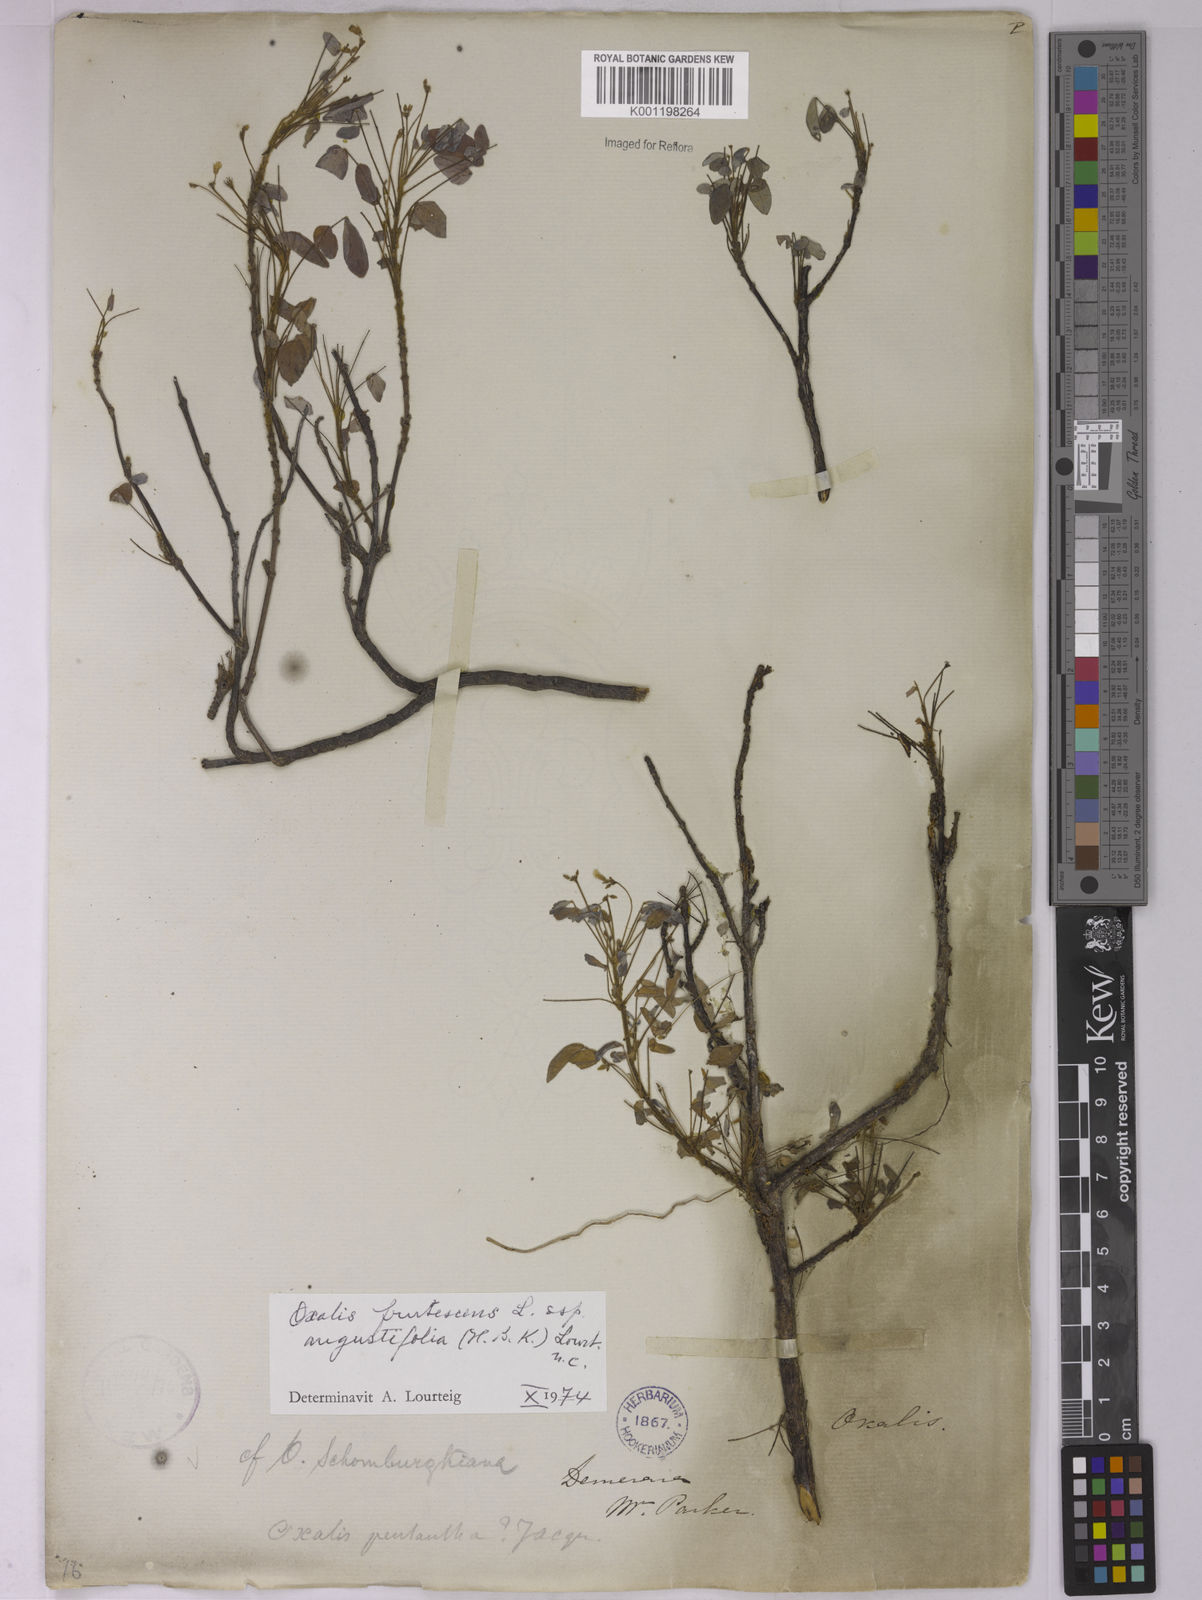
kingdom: Plantae
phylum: Tracheophyta
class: Magnoliopsida
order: Oxalidales
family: Oxalidaceae
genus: Oxalis
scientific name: Oxalis frutescens
